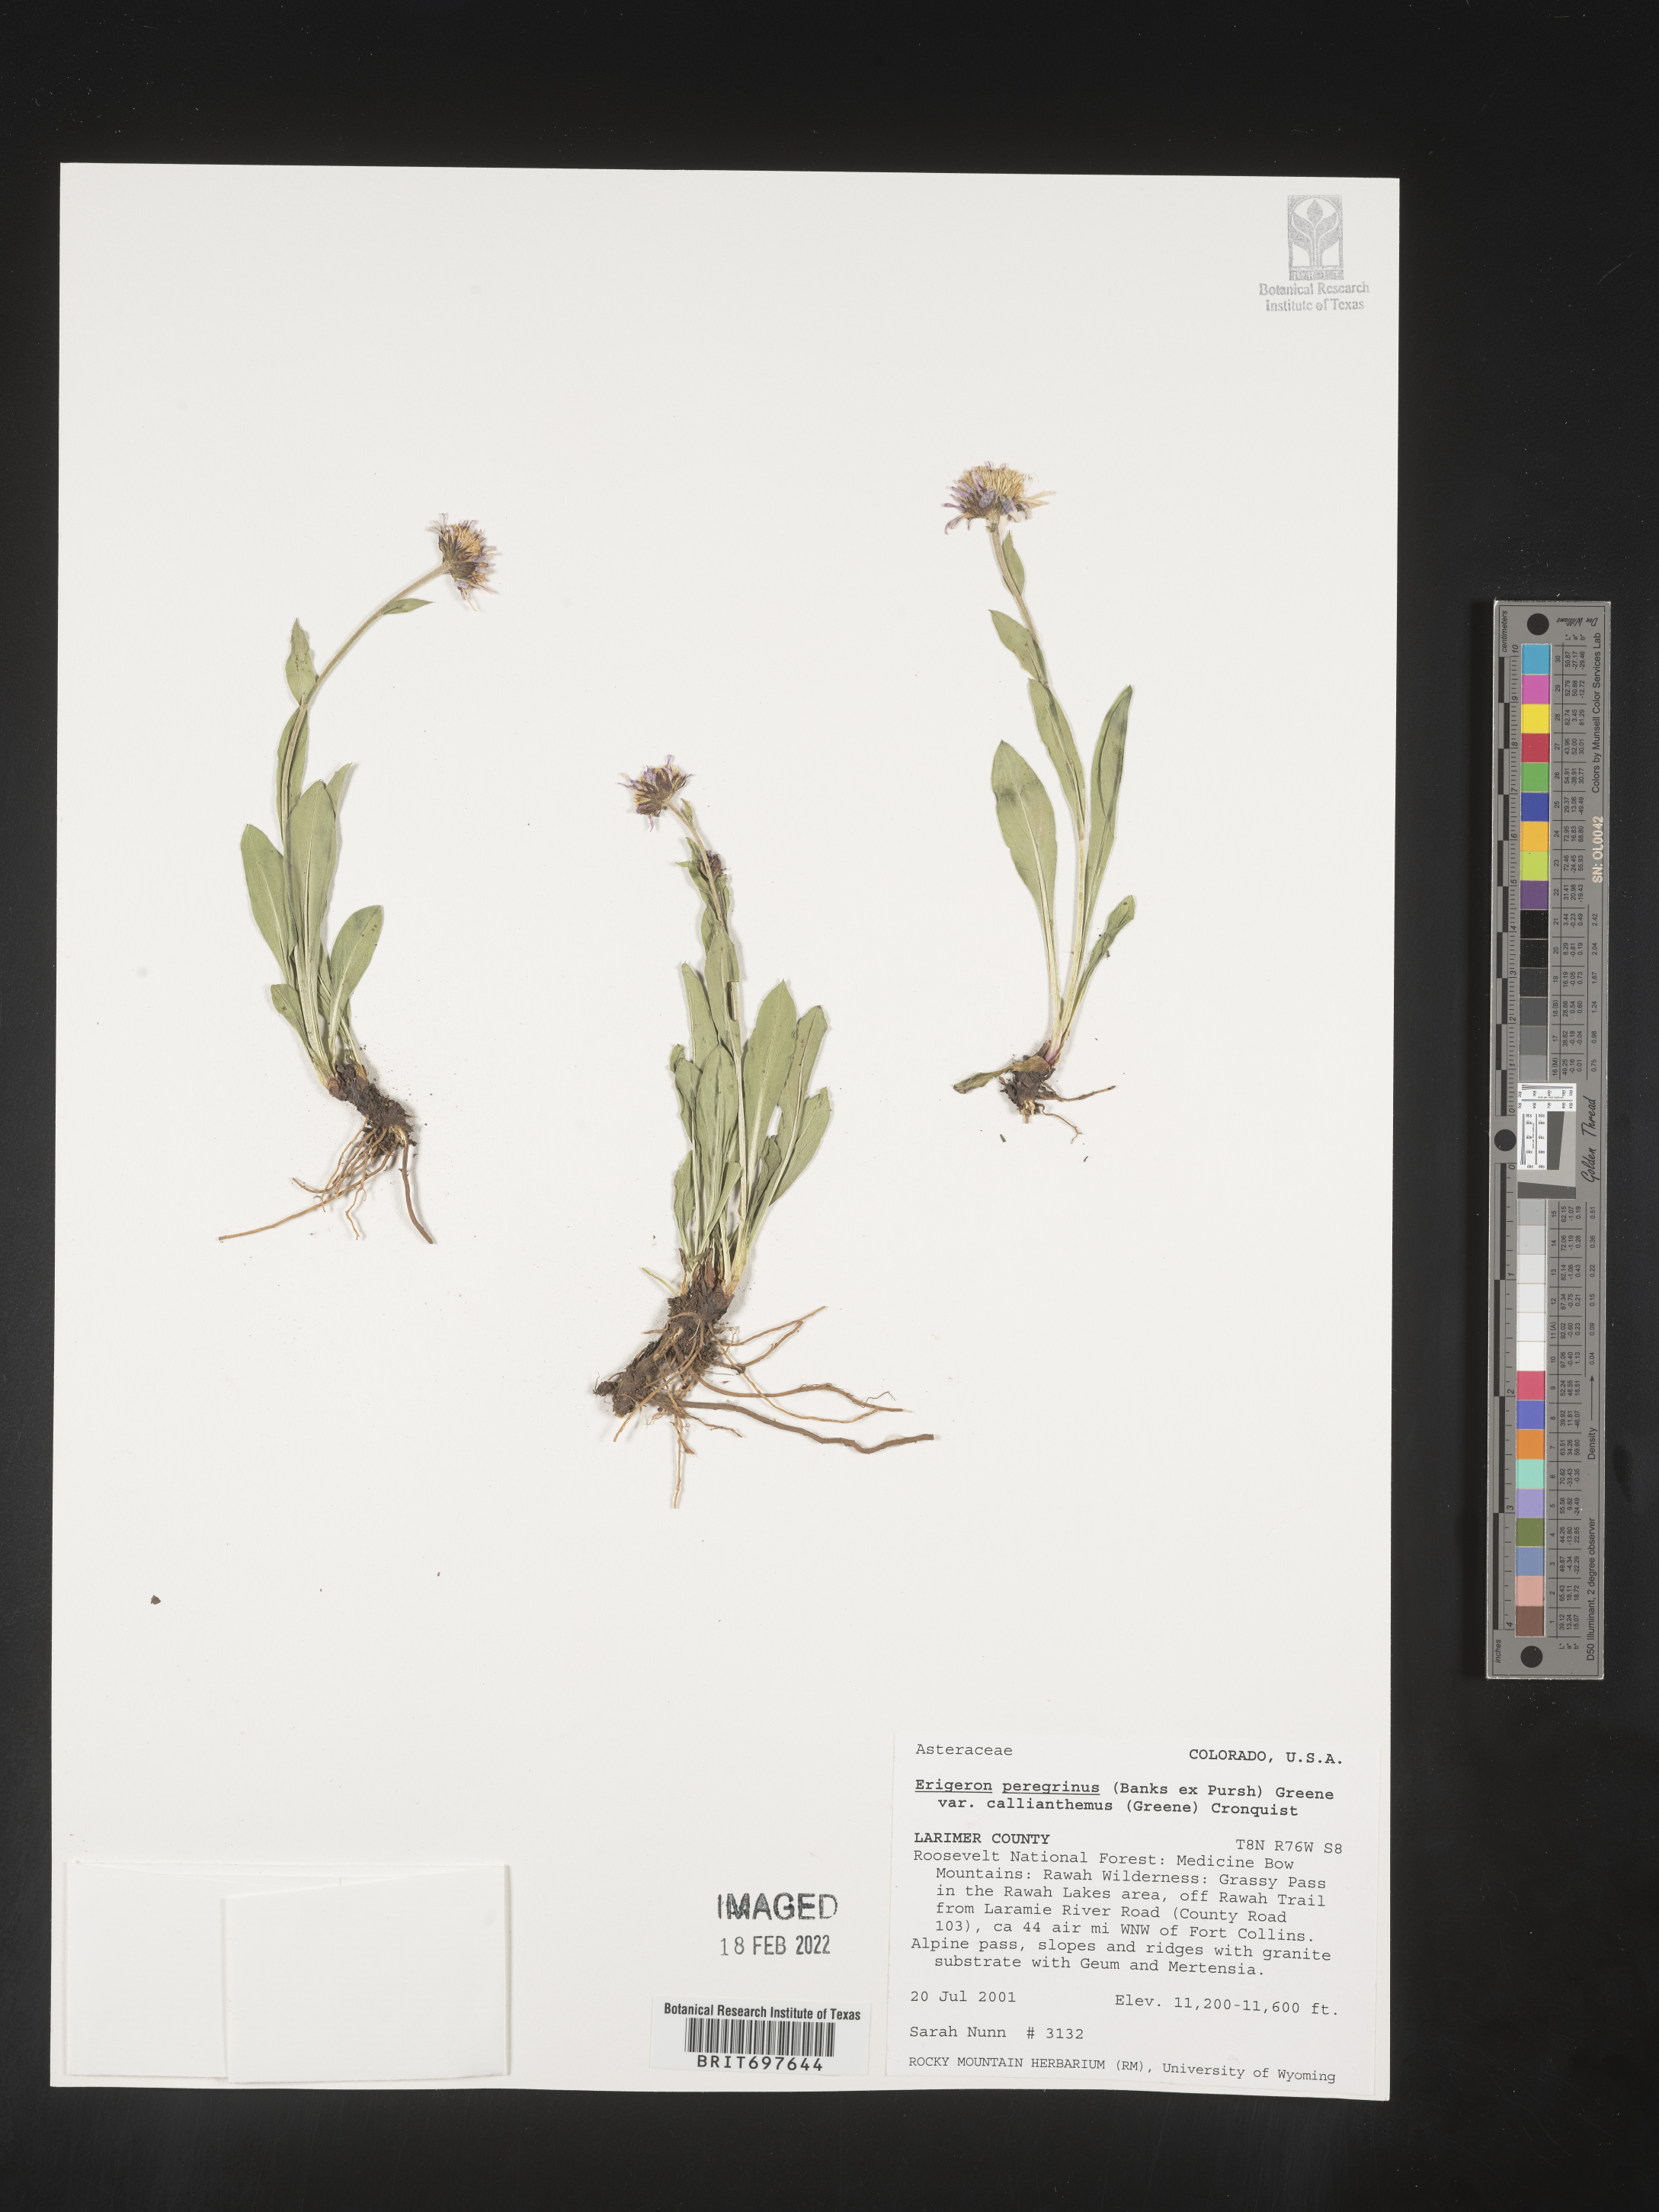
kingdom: Plantae
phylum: Tracheophyta
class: Magnoliopsida
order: Asterales
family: Asteraceae
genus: Erigeron
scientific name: Erigeron peregrinus
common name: Peregrine fleabane
